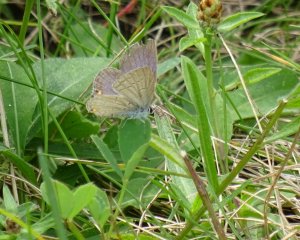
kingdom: Animalia
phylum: Arthropoda
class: Insecta
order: Lepidoptera
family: Lycaenidae
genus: Elkalyce
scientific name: Elkalyce comyntas
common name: Eastern Tailed-Blue
